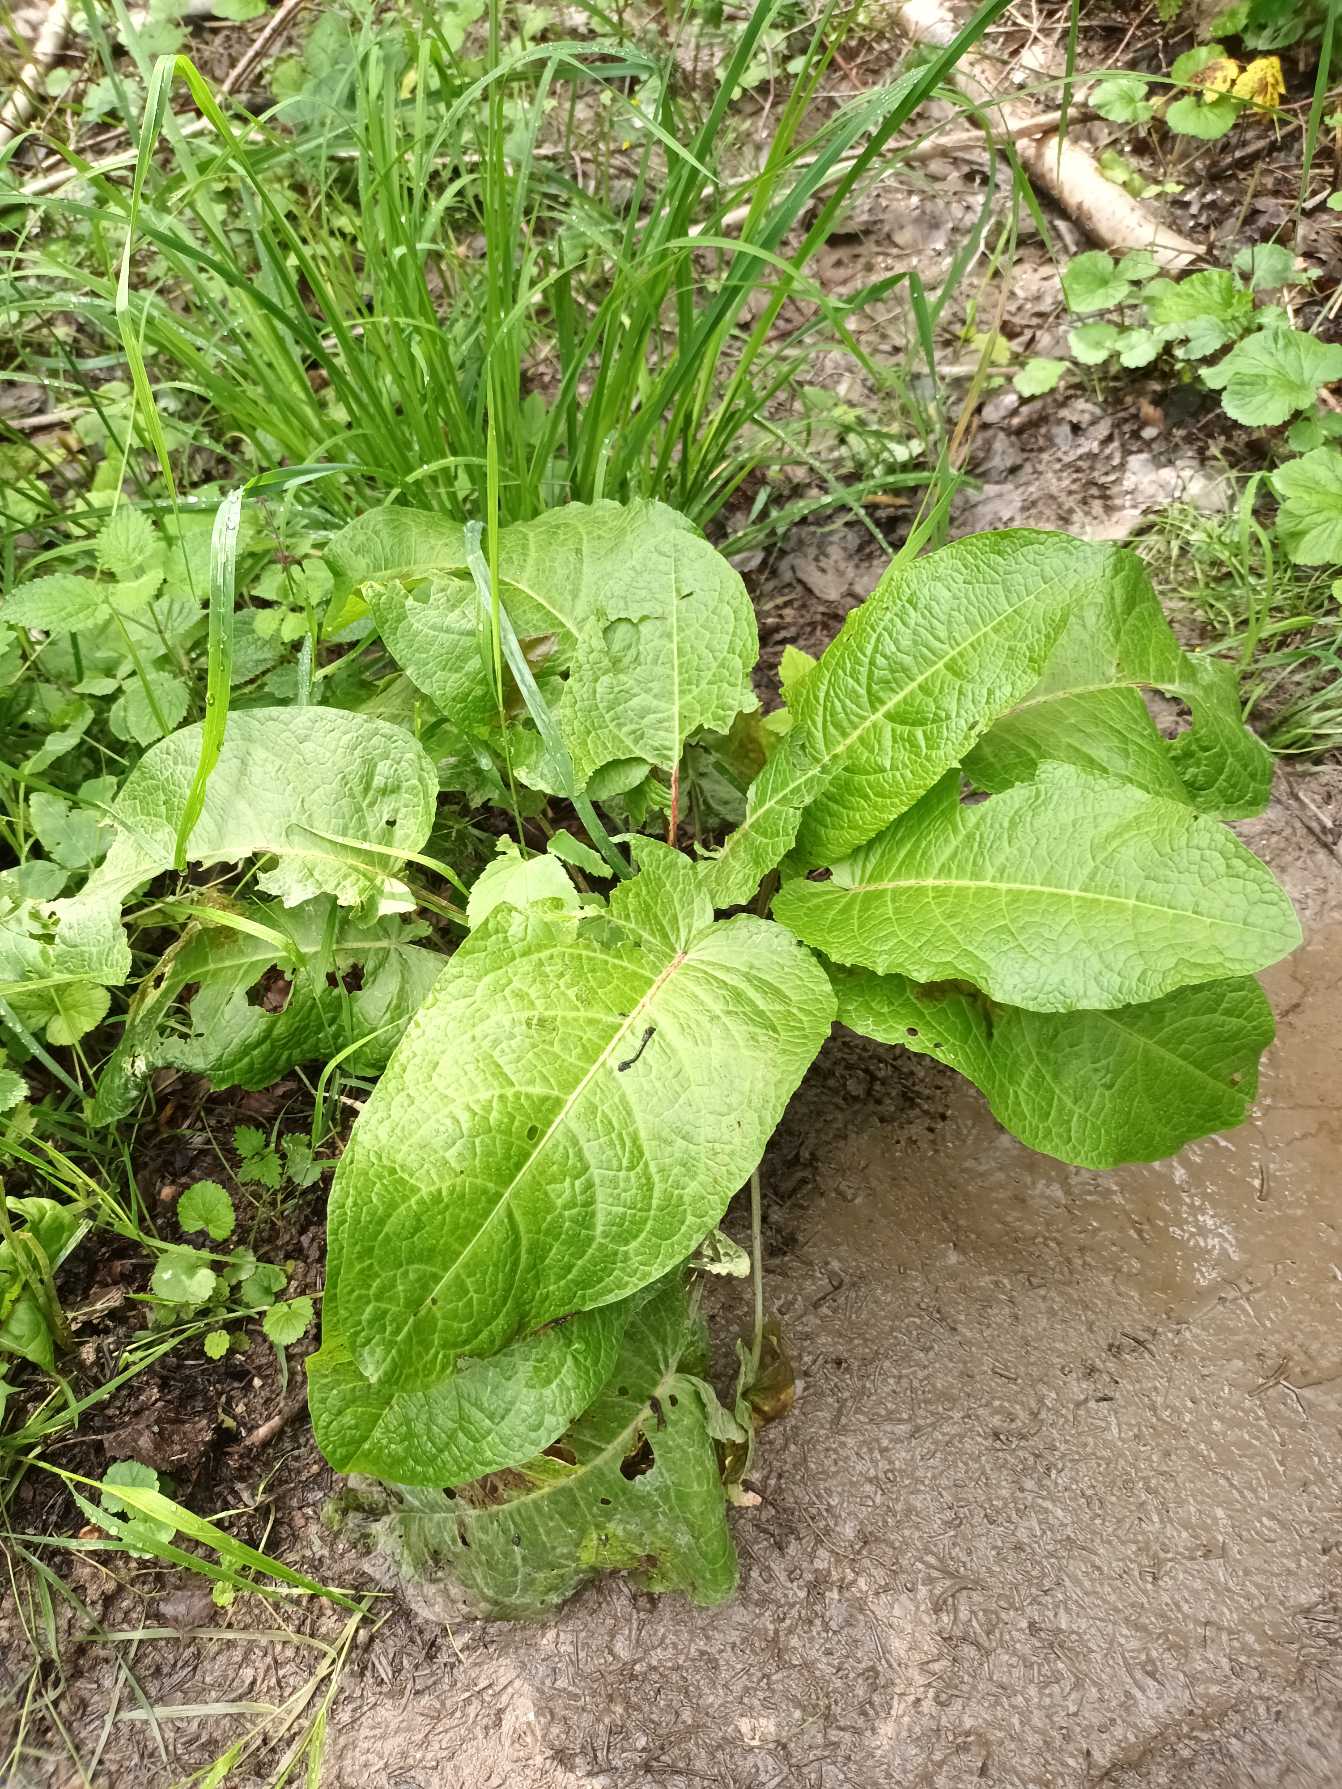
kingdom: Plantae
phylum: Tracheophyta
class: Magnoliopsida
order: Caryophyllales
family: Polygonaceae
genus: Rumex
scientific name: Rumex obtusifolius
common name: Butbladet skræppe
